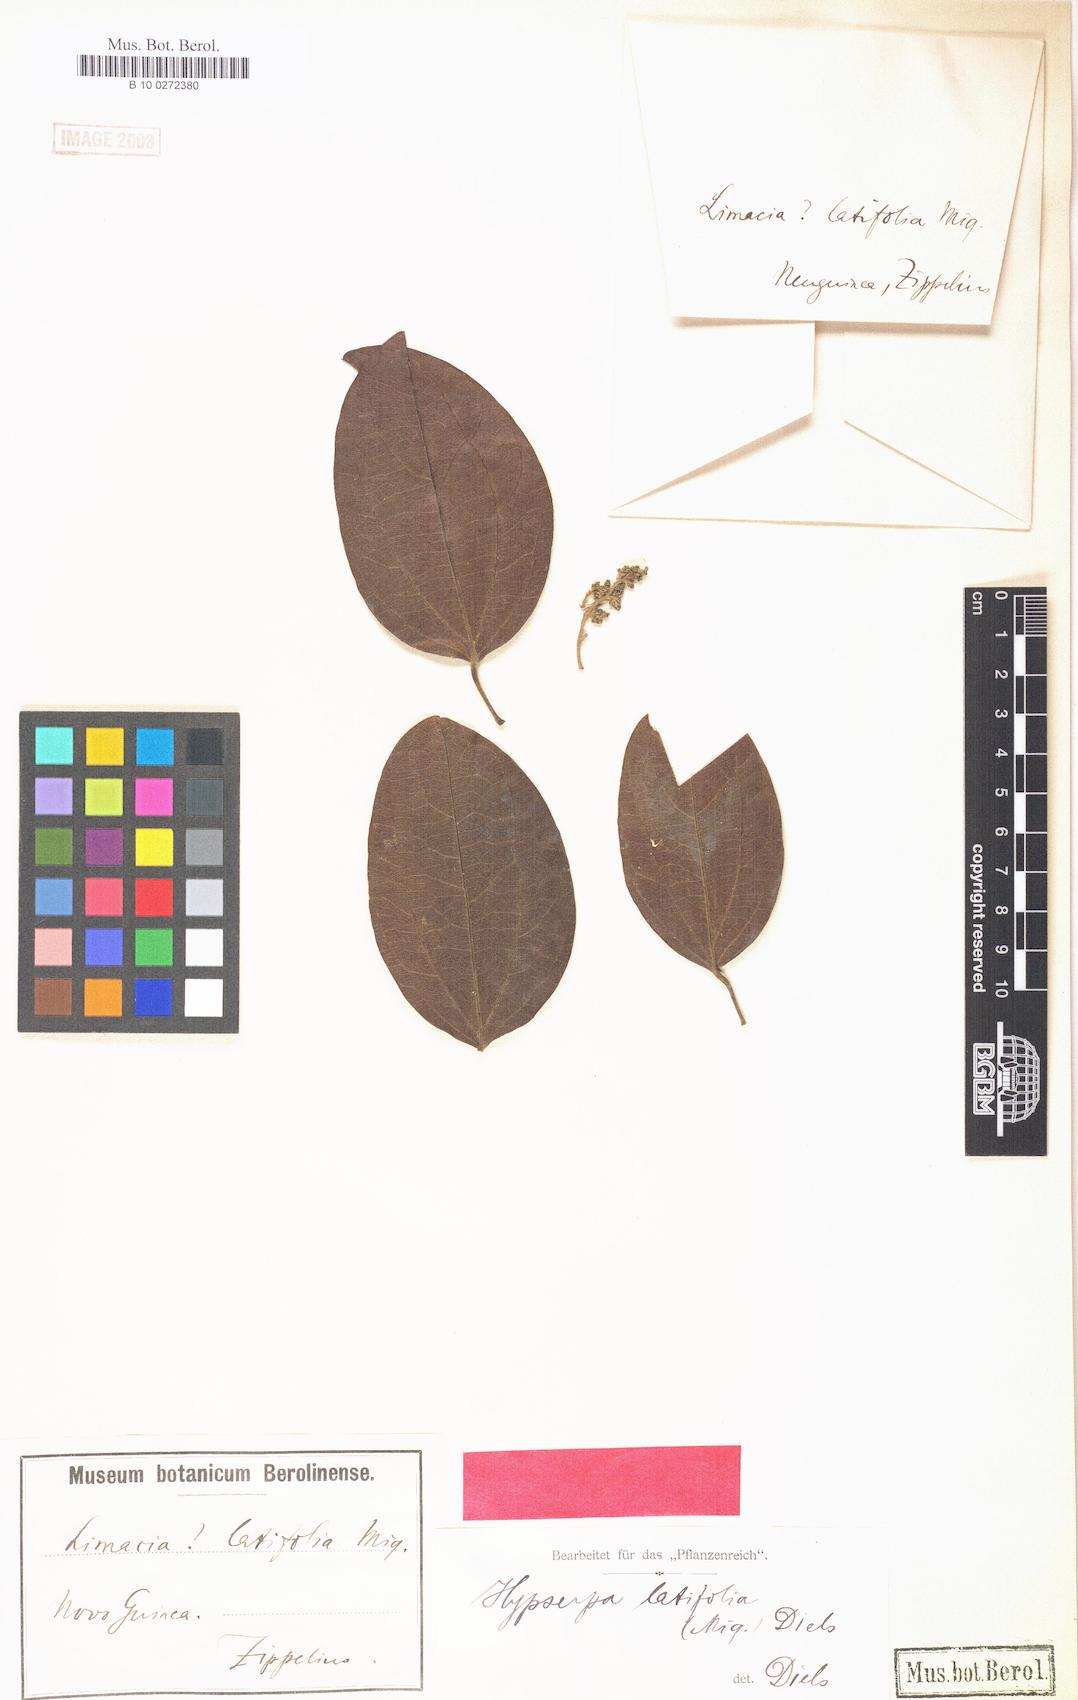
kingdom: Plantae
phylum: Tracheophyta
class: Magnoliopsida
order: Ranunculales
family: Menispermaceae
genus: Hypserpa
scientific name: Hypserpa polyandra
